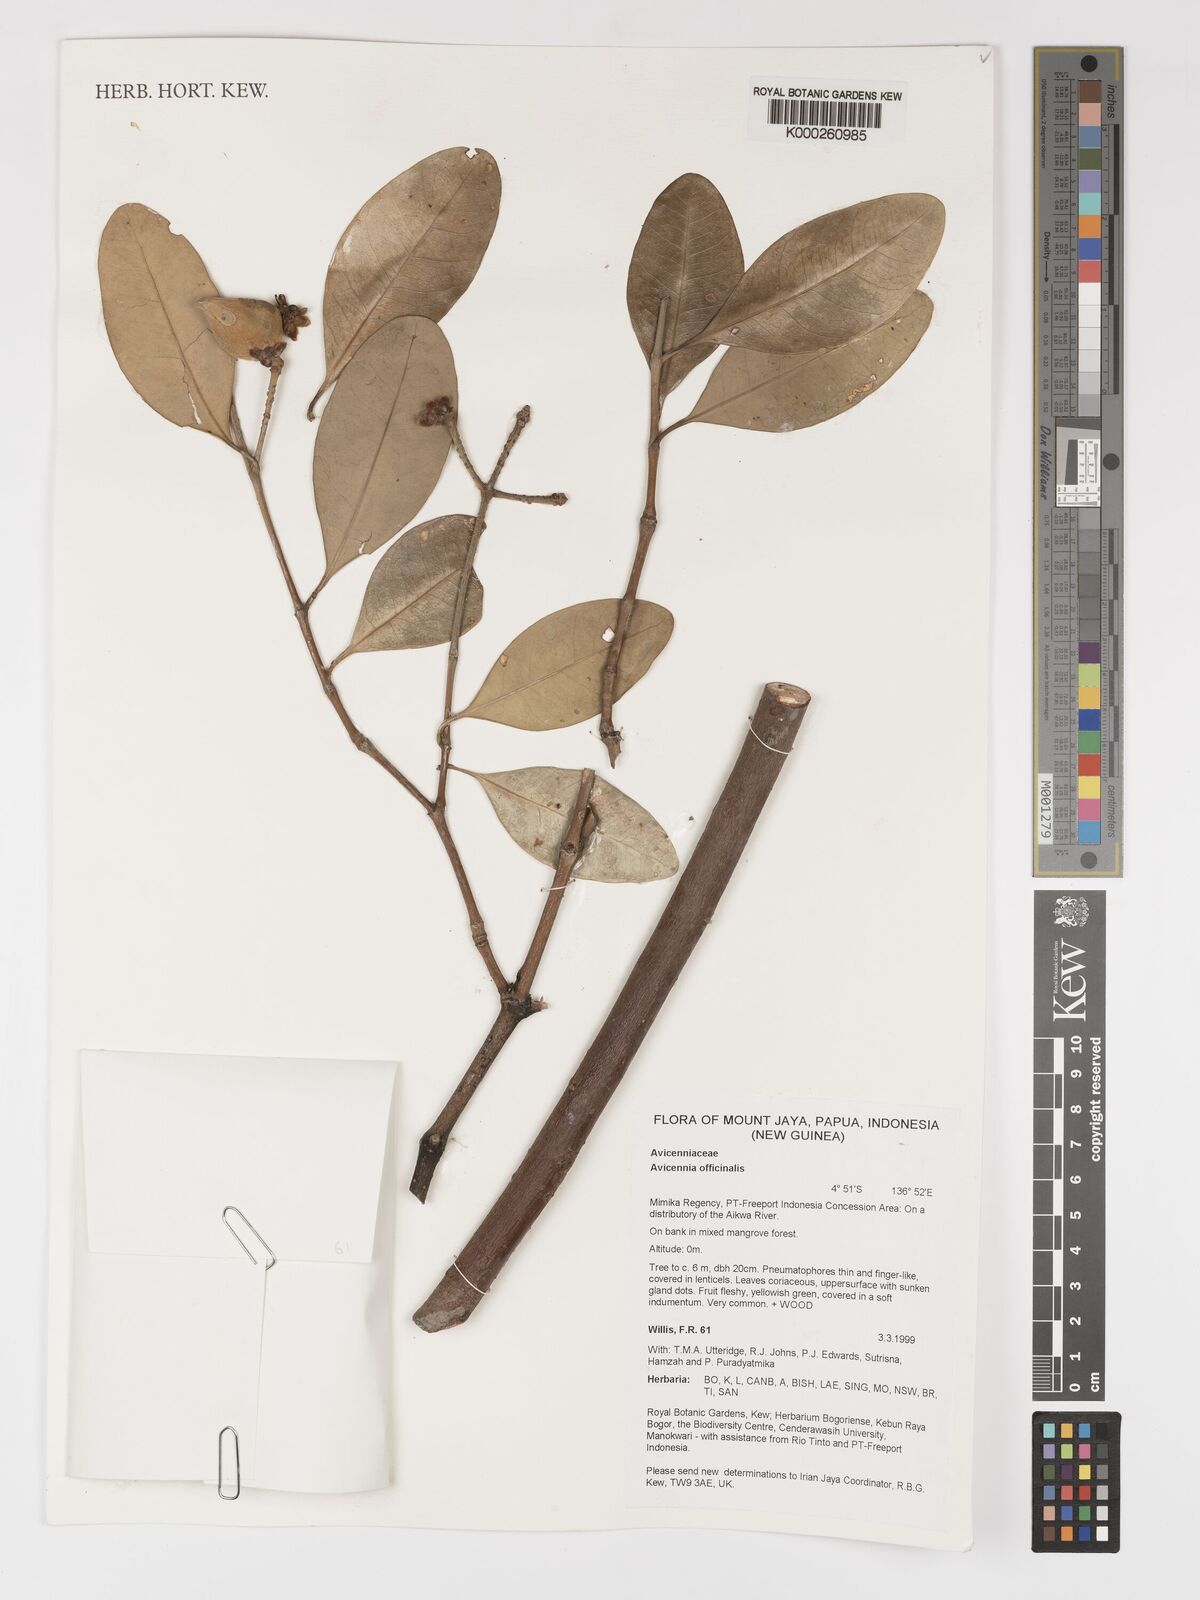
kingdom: Plantae
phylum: Tracheophyta
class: Magnoliopsida
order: Lamiales
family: Acanthaceae
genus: Avicennia
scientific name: Avicennia officinalis
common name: Baen
